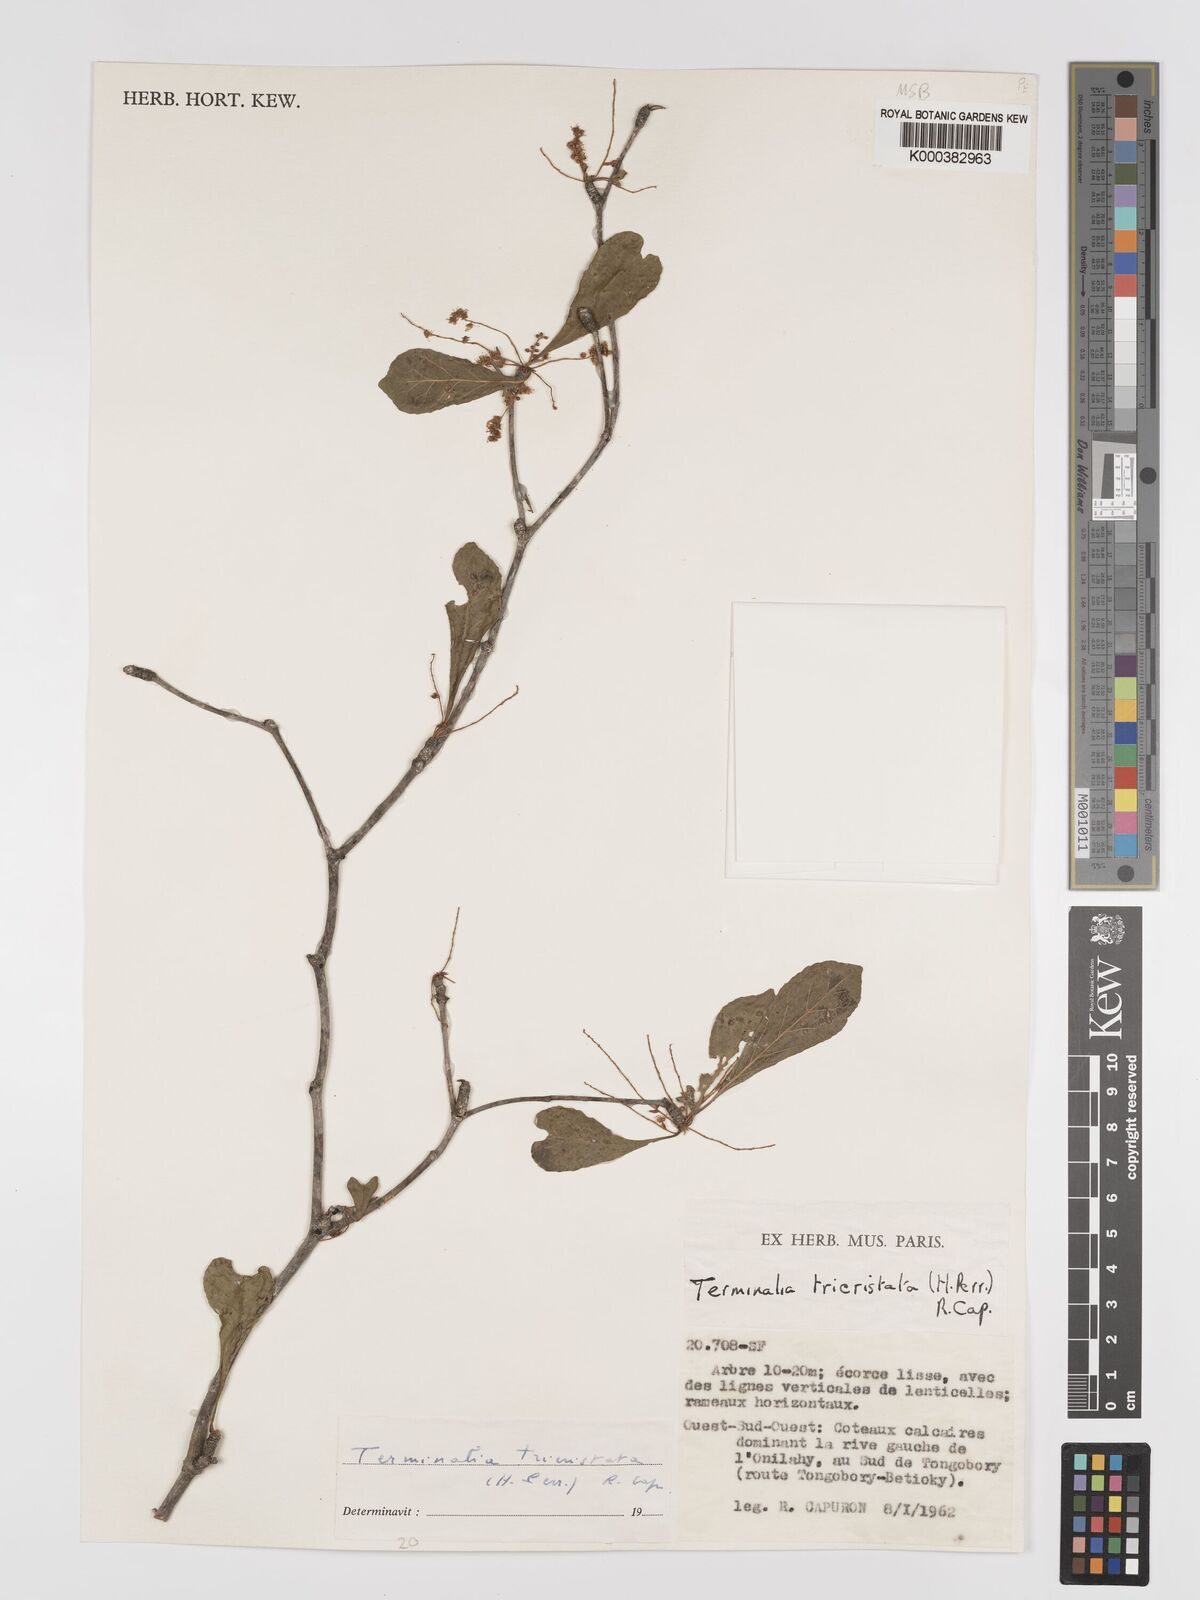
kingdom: Plantae
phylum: Tracheophyta
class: Magnoliopsida
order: Myrtales
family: Combretaceae
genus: Terminalia
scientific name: Terminalia
